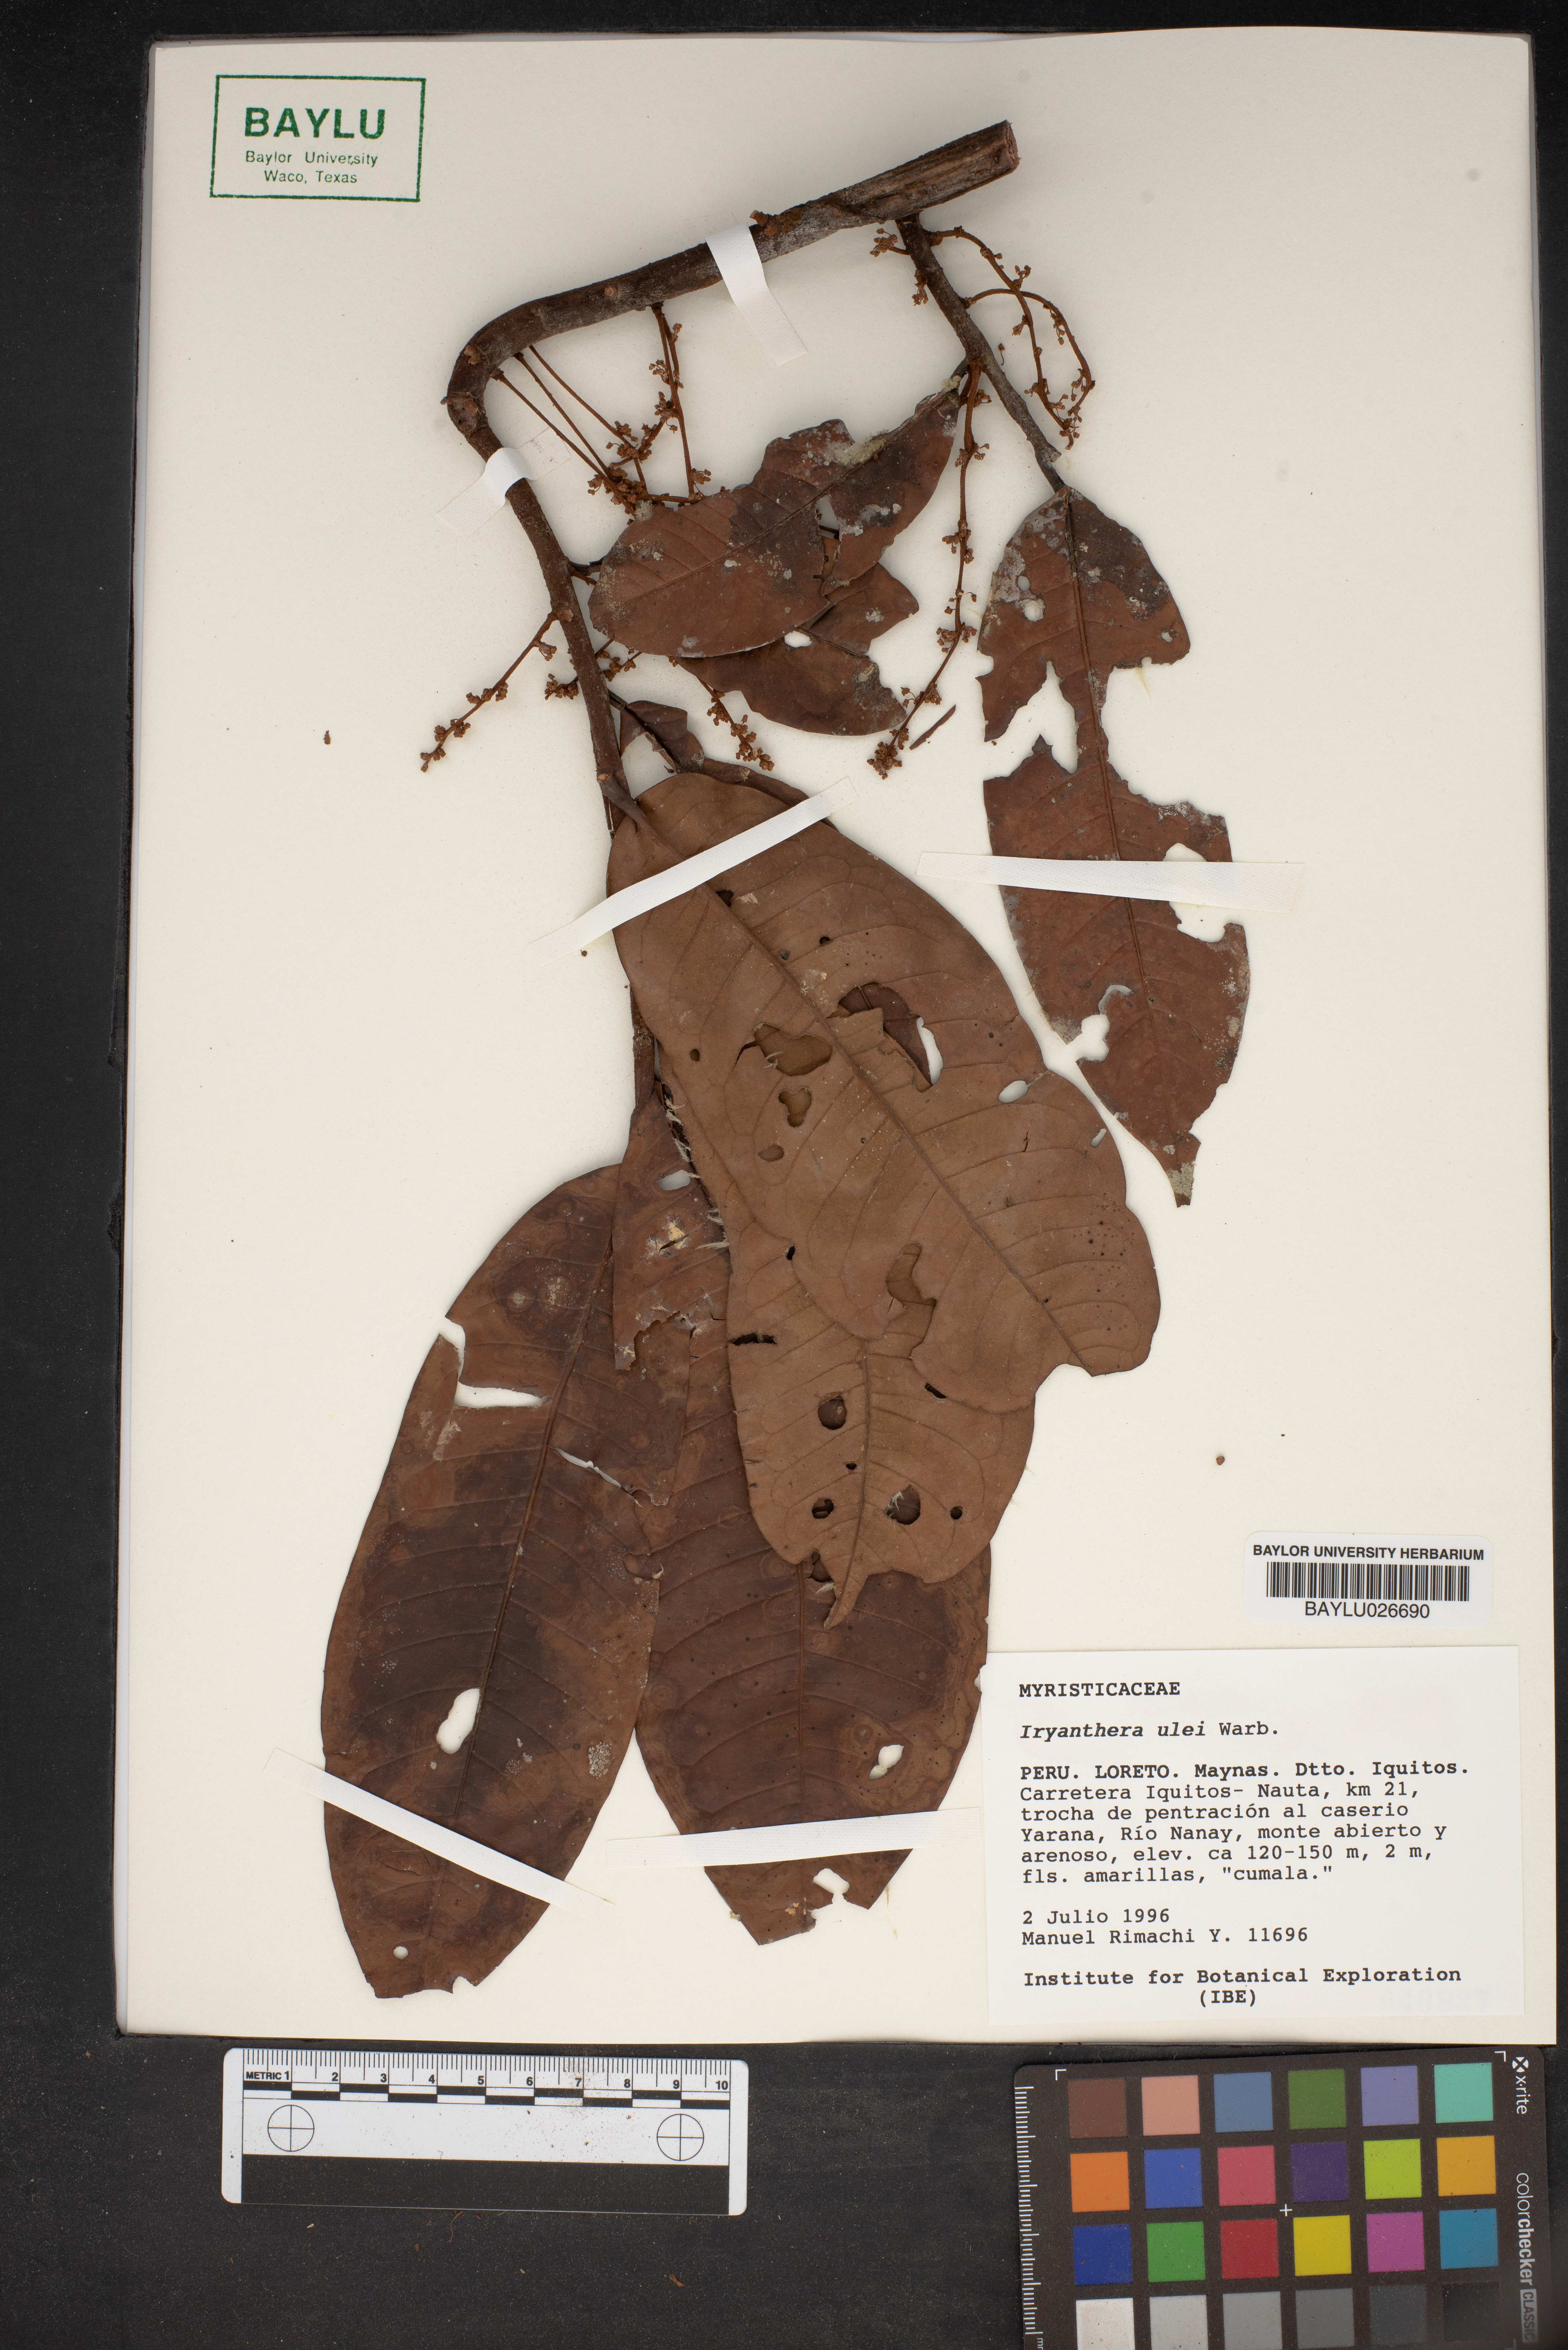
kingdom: Plantae
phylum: Tracheophyta
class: Magnoliopsida
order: Magnoliales
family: Myristicaceae
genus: Iryanthera
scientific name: Iryanthera ulei
